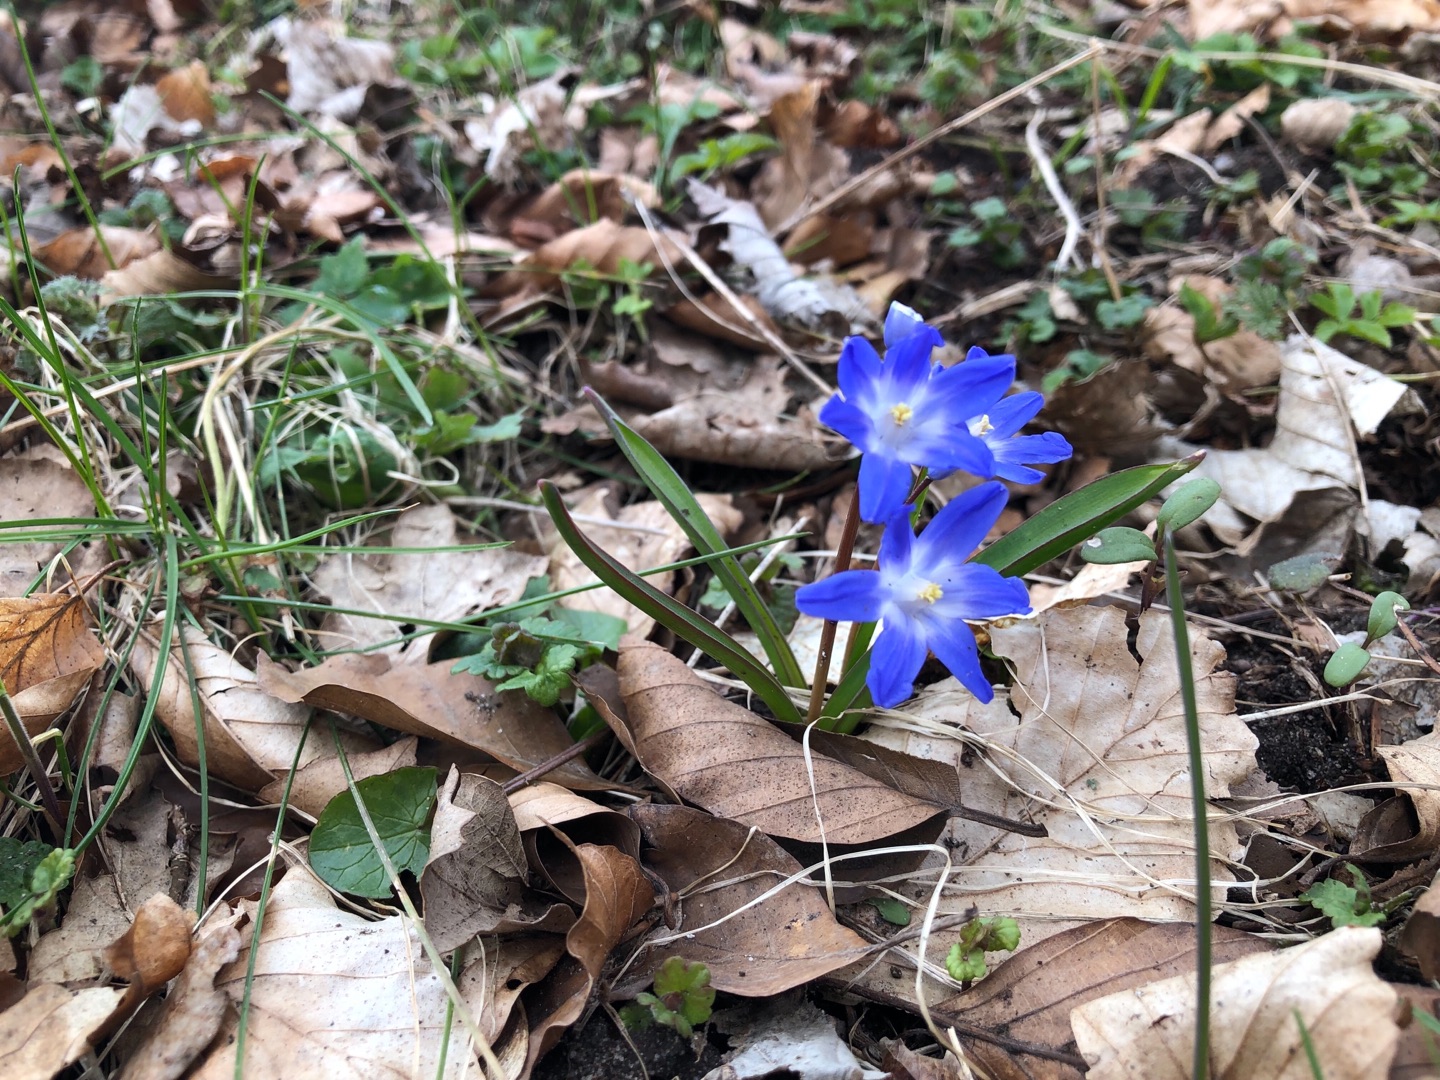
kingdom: Plantae
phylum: Tracheophyta
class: Liliopsida
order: Asparagales
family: Asparagaceae
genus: Scilla
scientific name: Scilla forbesii
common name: Almindelig snepryd
